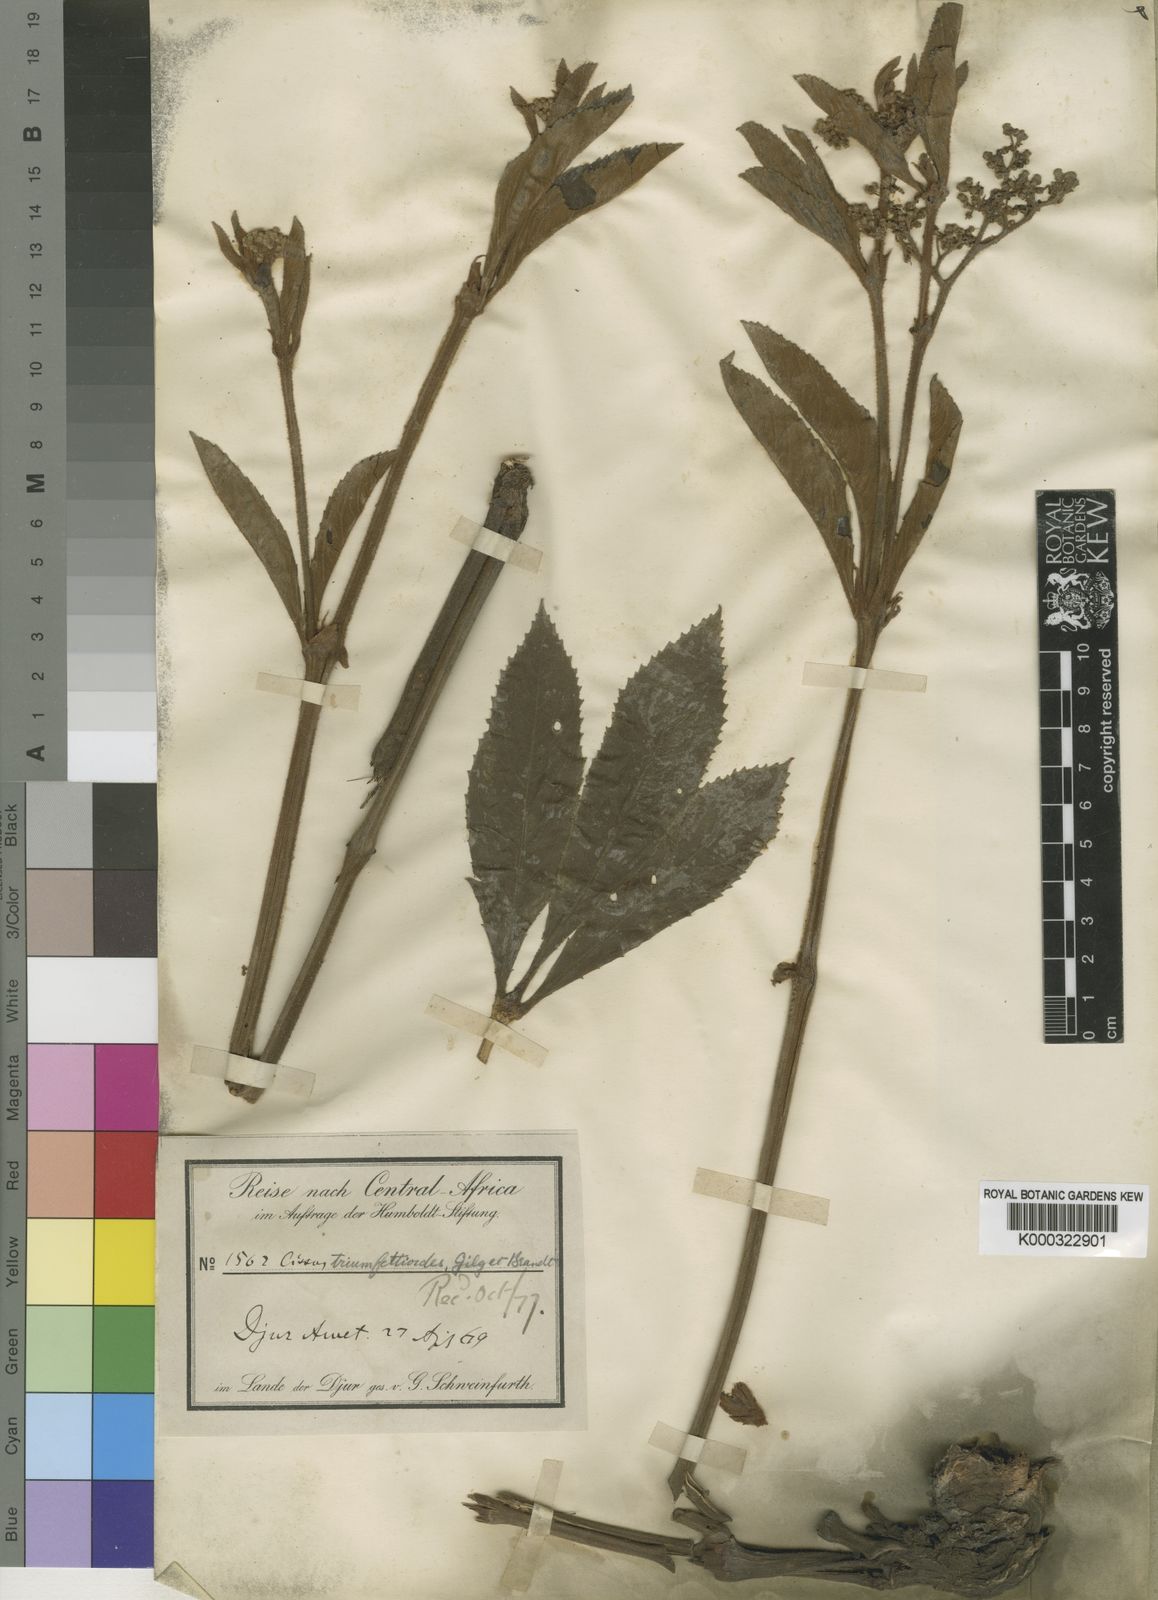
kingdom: Plantae
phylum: Tracheophyta
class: Magnoliopsida
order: Vitales
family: Vitaceae
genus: Cyphostemma
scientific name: Cyphostemma
